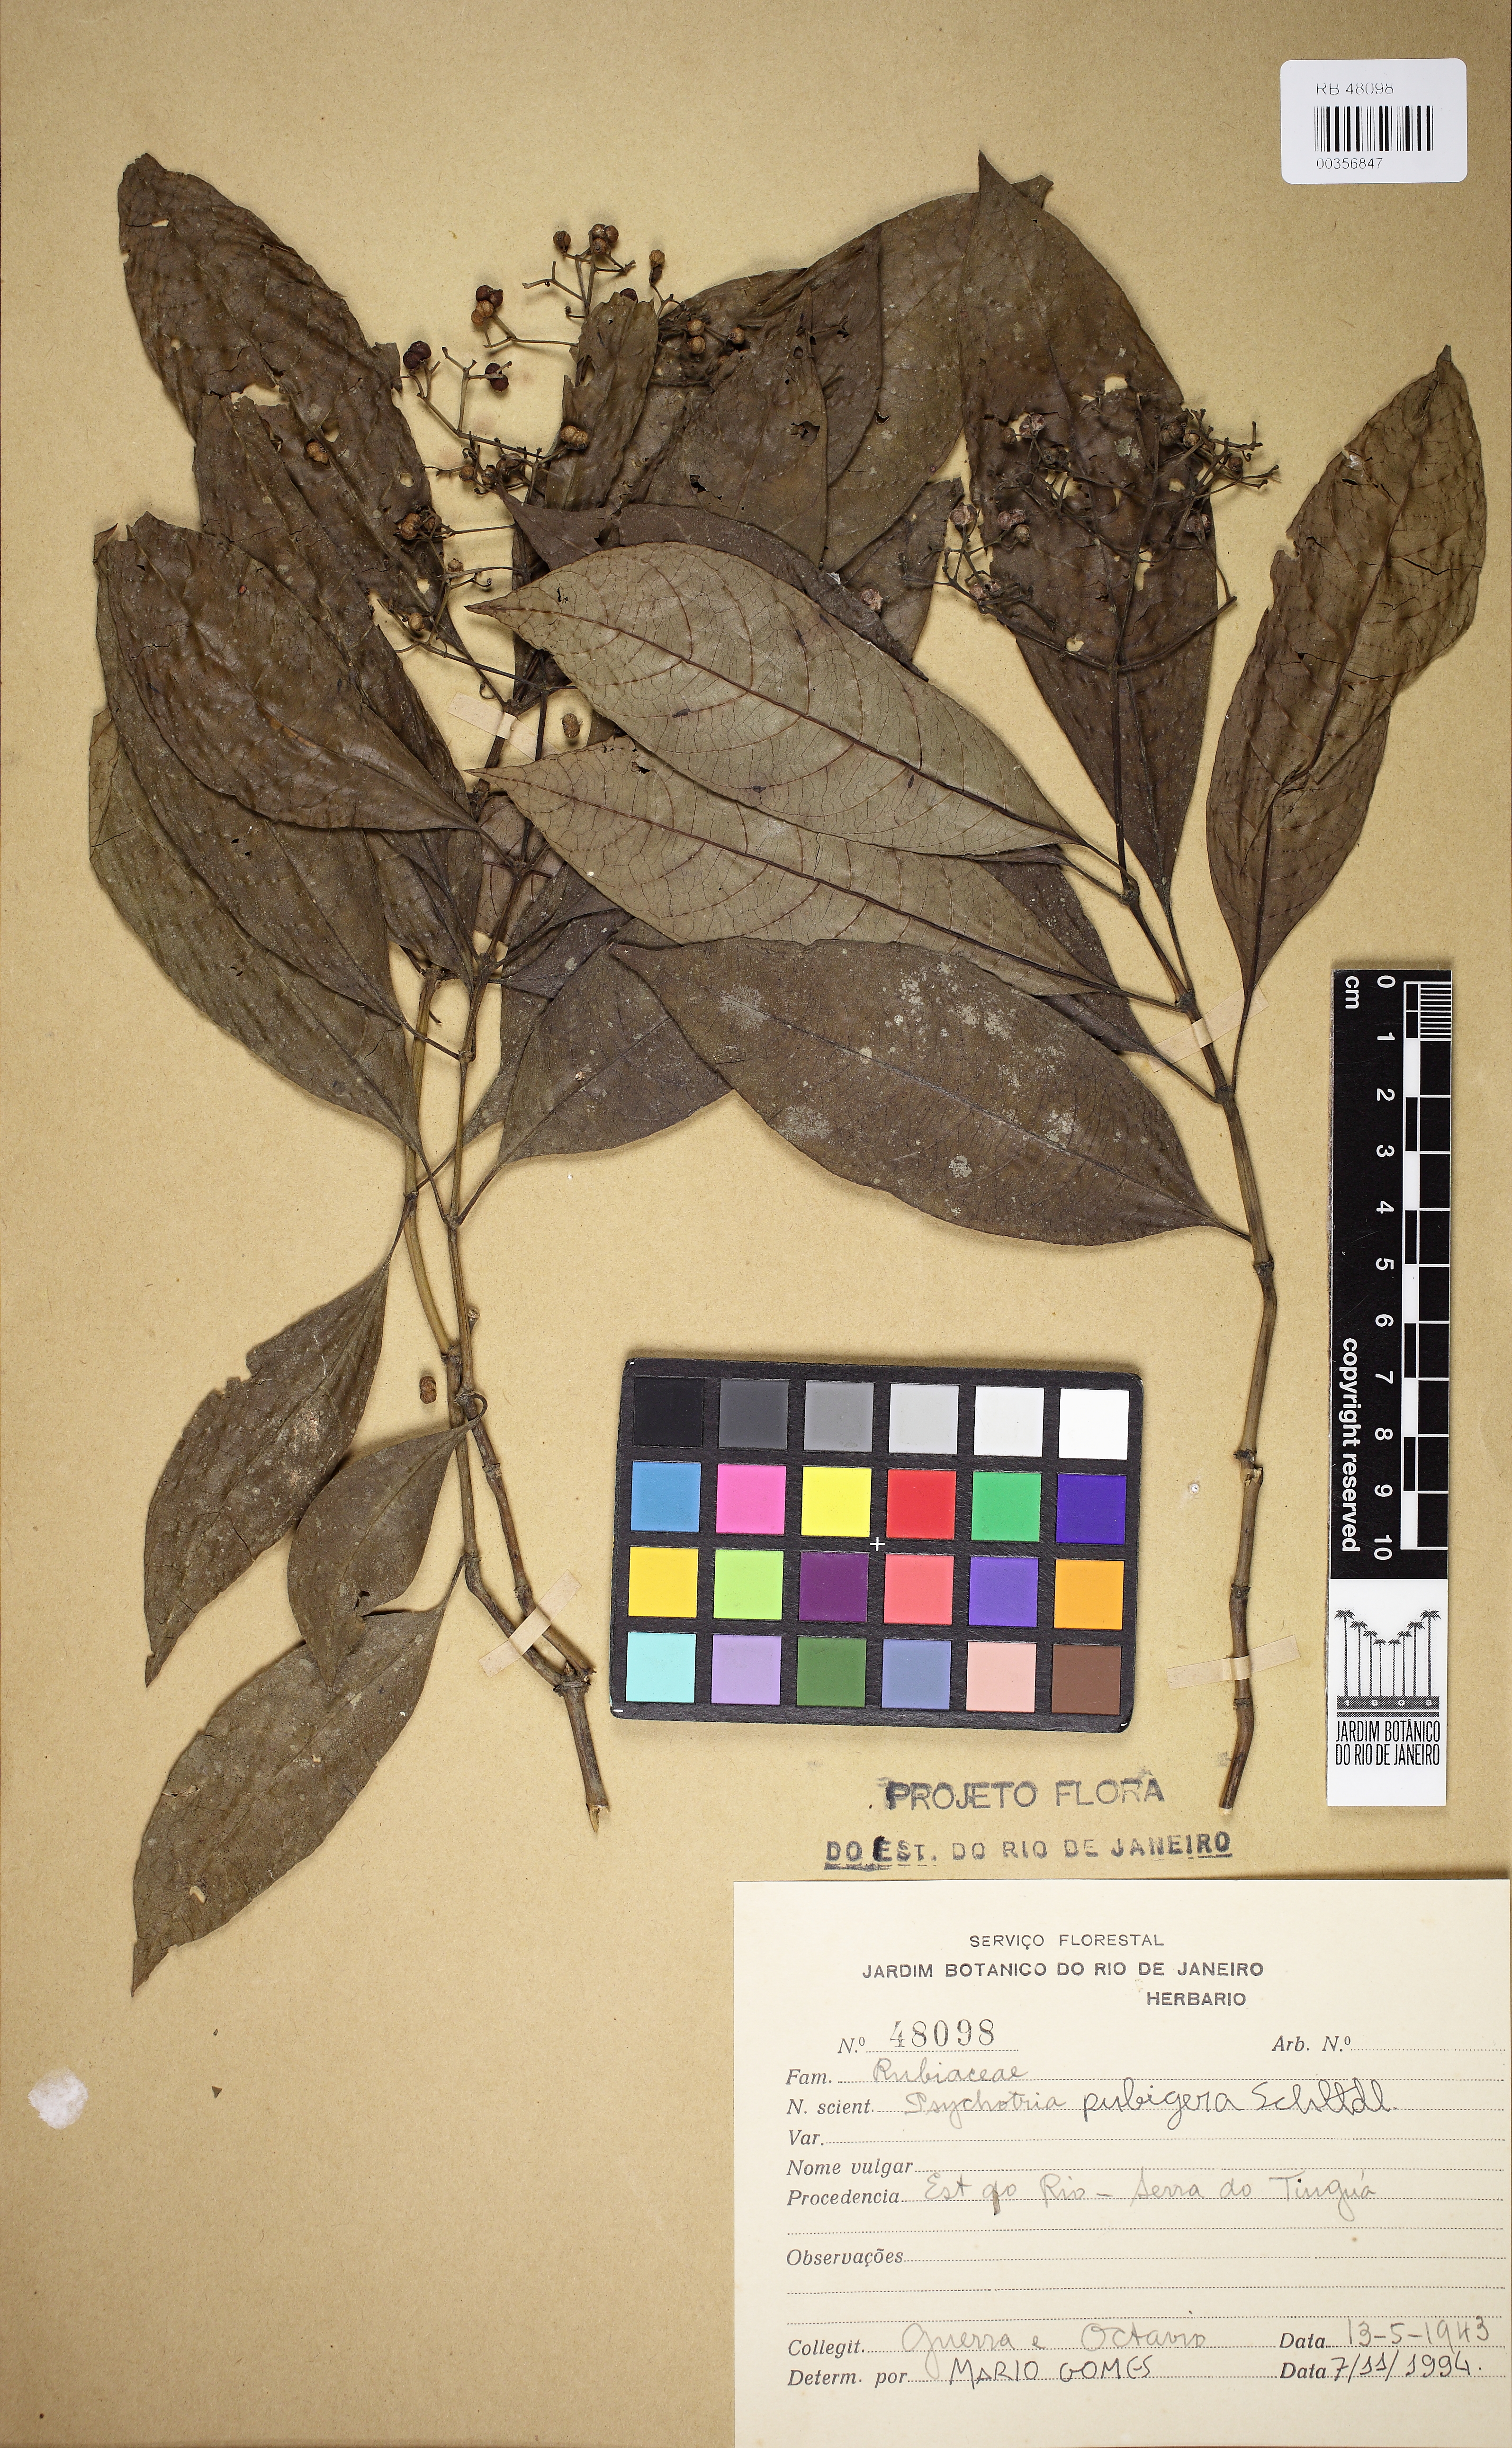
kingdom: Plantae
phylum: Tracheophyta
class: Magnoliopsida
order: Gentianales
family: Rubiaceae
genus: Psychotria
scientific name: Psychotria nemorosa
